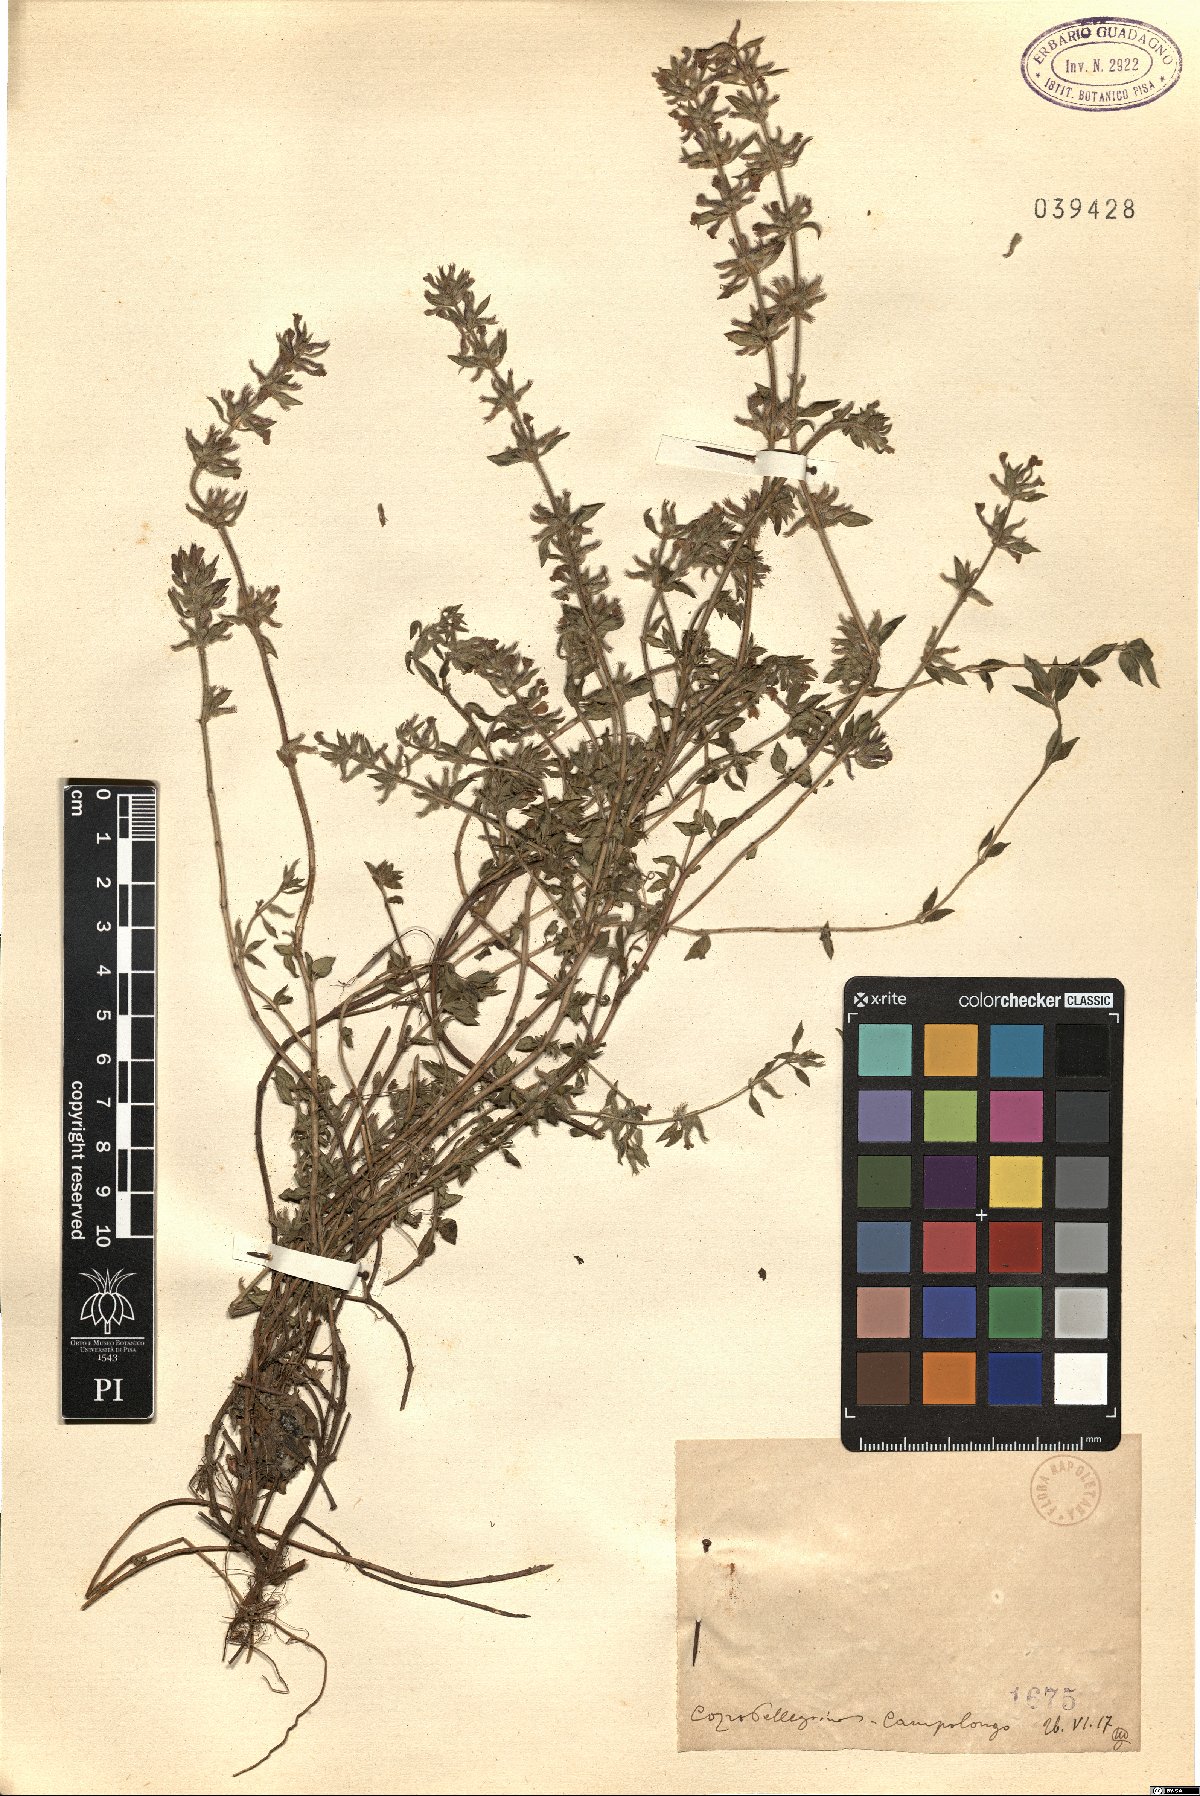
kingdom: Plantae
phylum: Tracheophyta
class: Magnoliopsida
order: Lamiales
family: Lamiaceae
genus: Calamintha
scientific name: Calamintha
